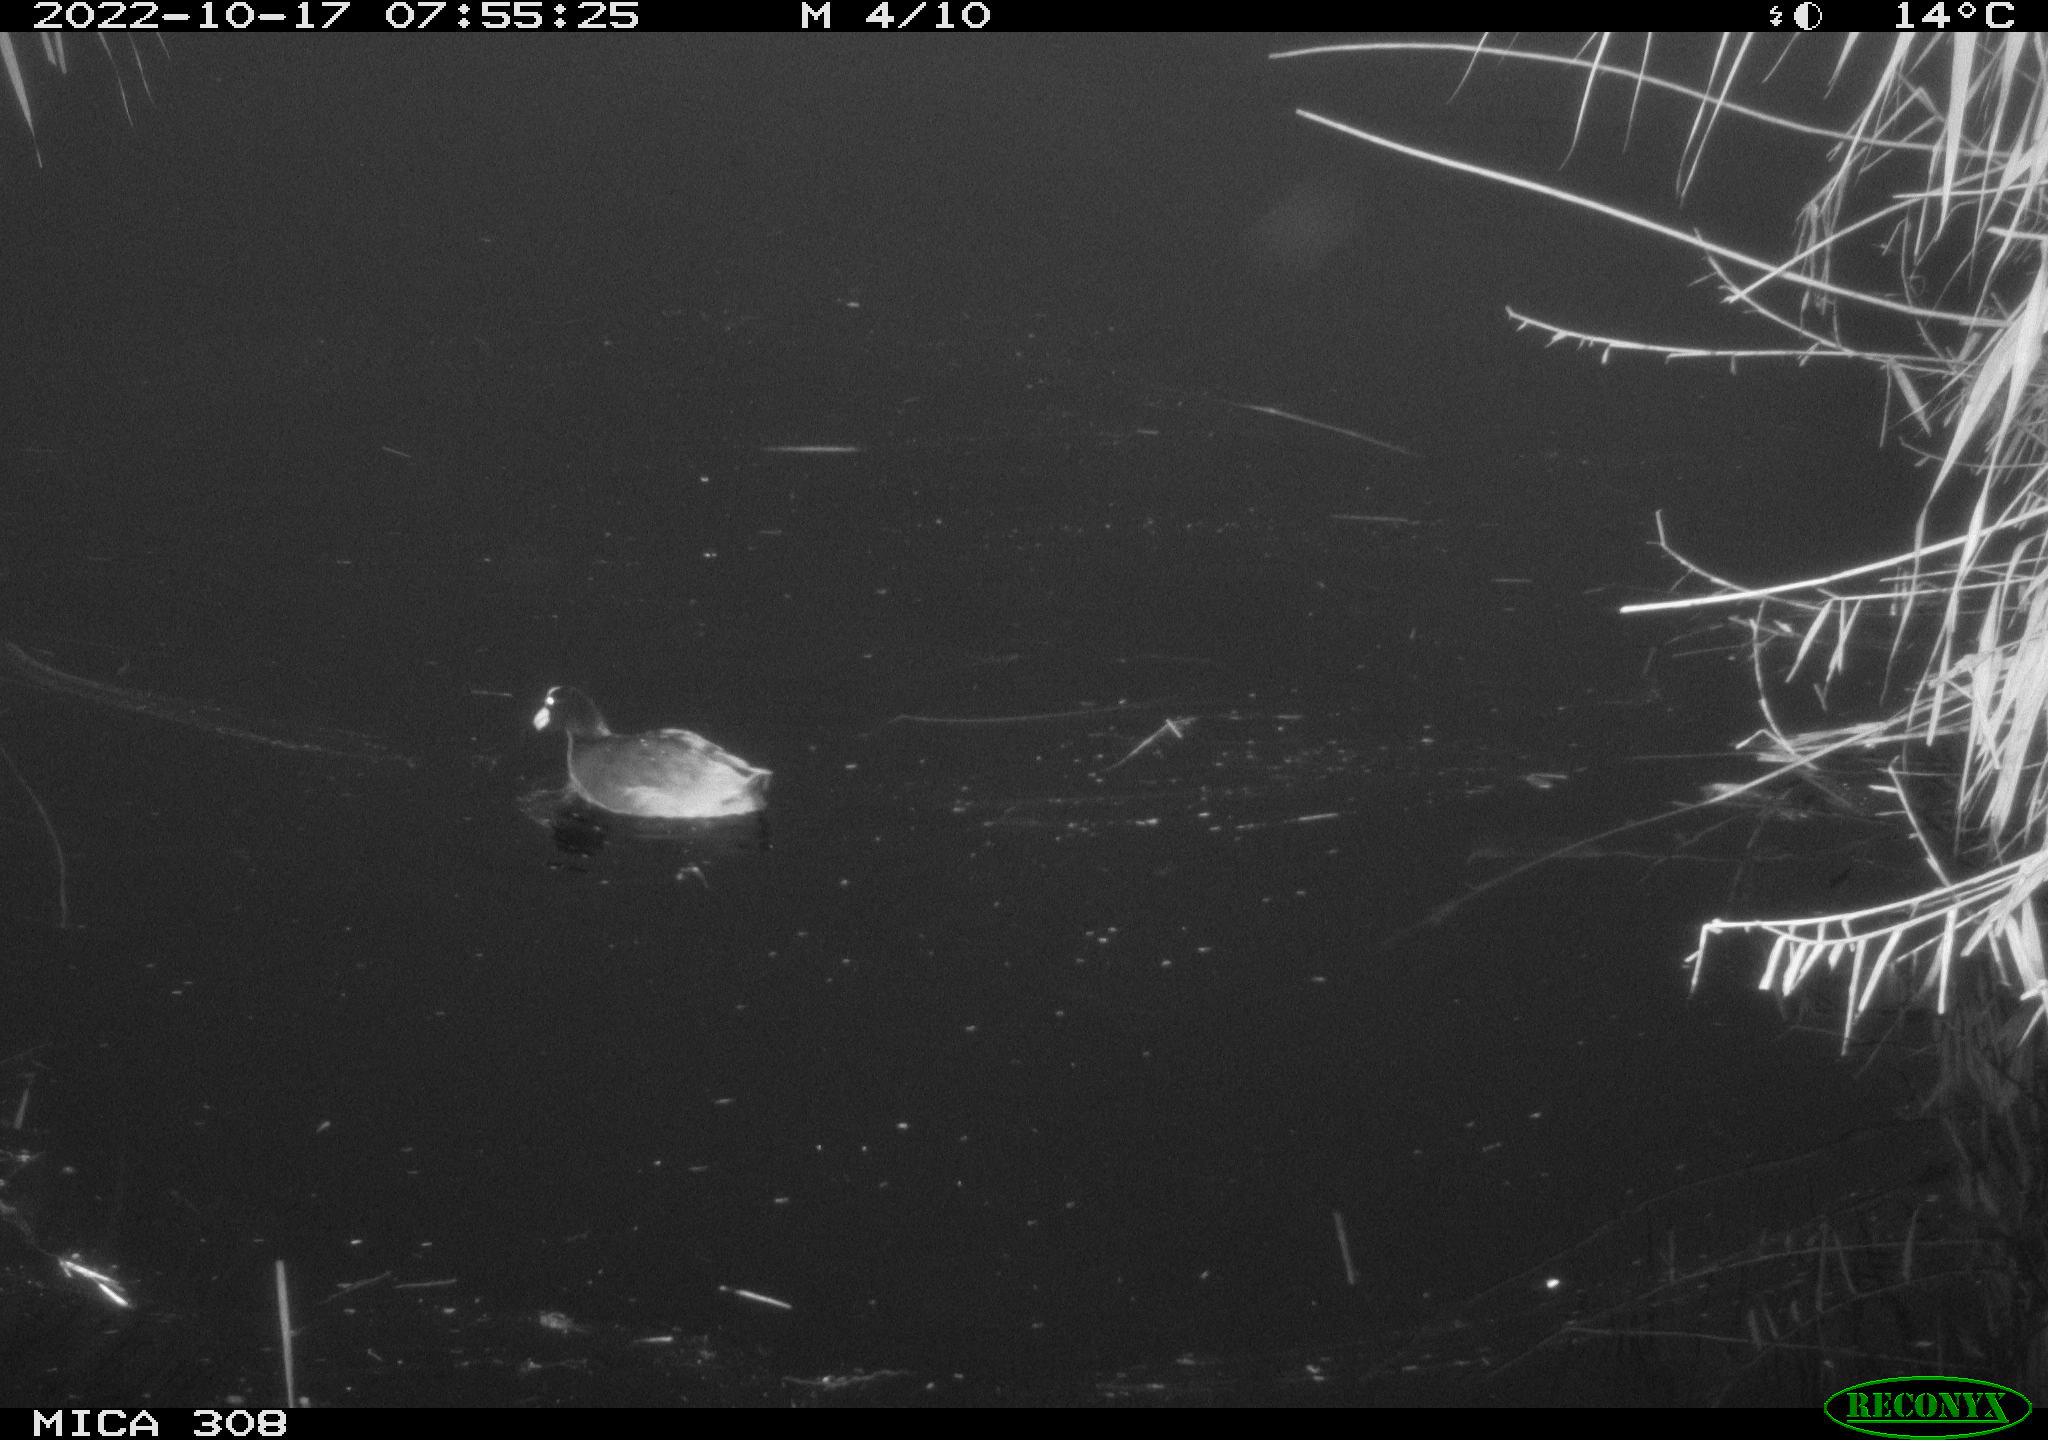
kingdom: Animalia
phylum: Chordata
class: Aves
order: Gruiformes
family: Rallidae
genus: Fulica
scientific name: Fulica atra
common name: Eurasian coot
